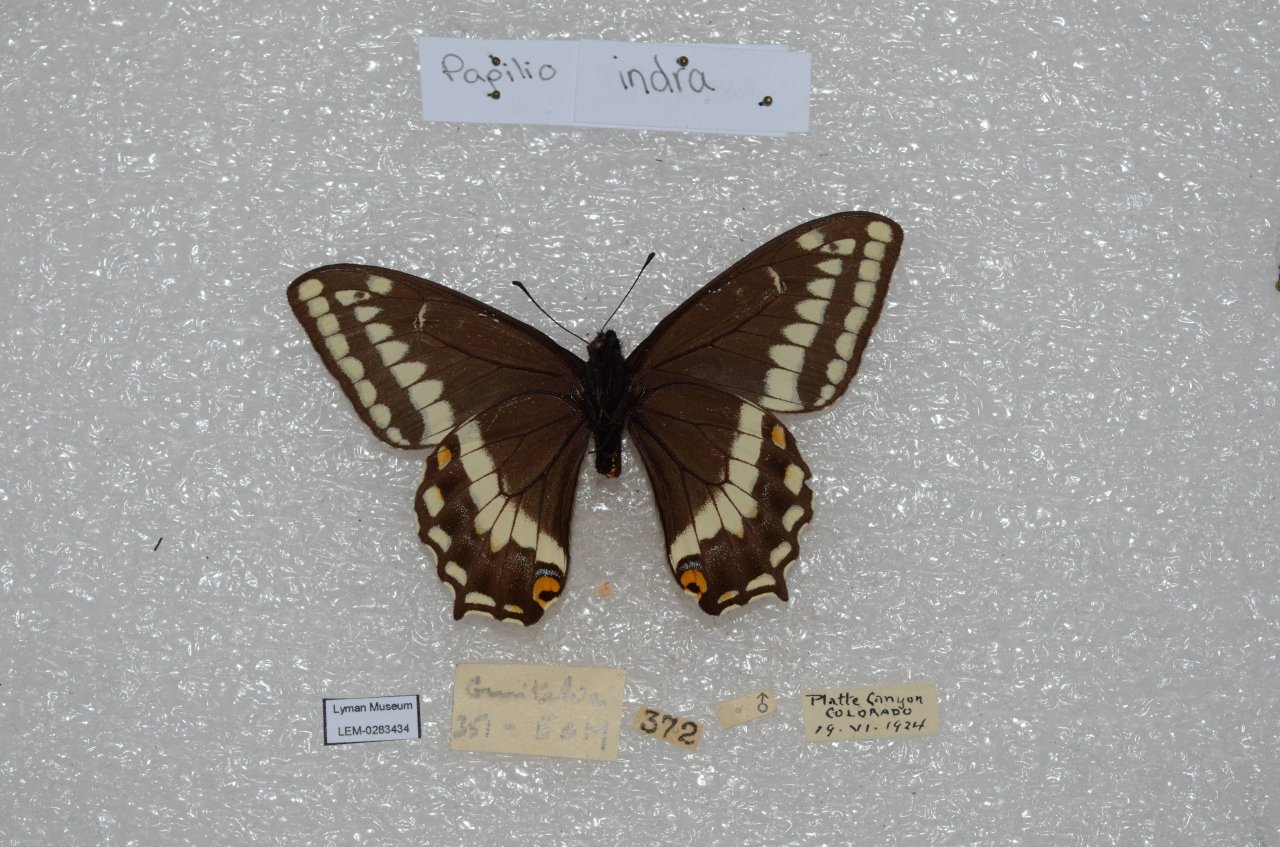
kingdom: Animalia
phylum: Arthropoda
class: Insecta
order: Lepidoptera
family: Papilionidae
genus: Papilio
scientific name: Papilio indra
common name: Indra Swallowtail
